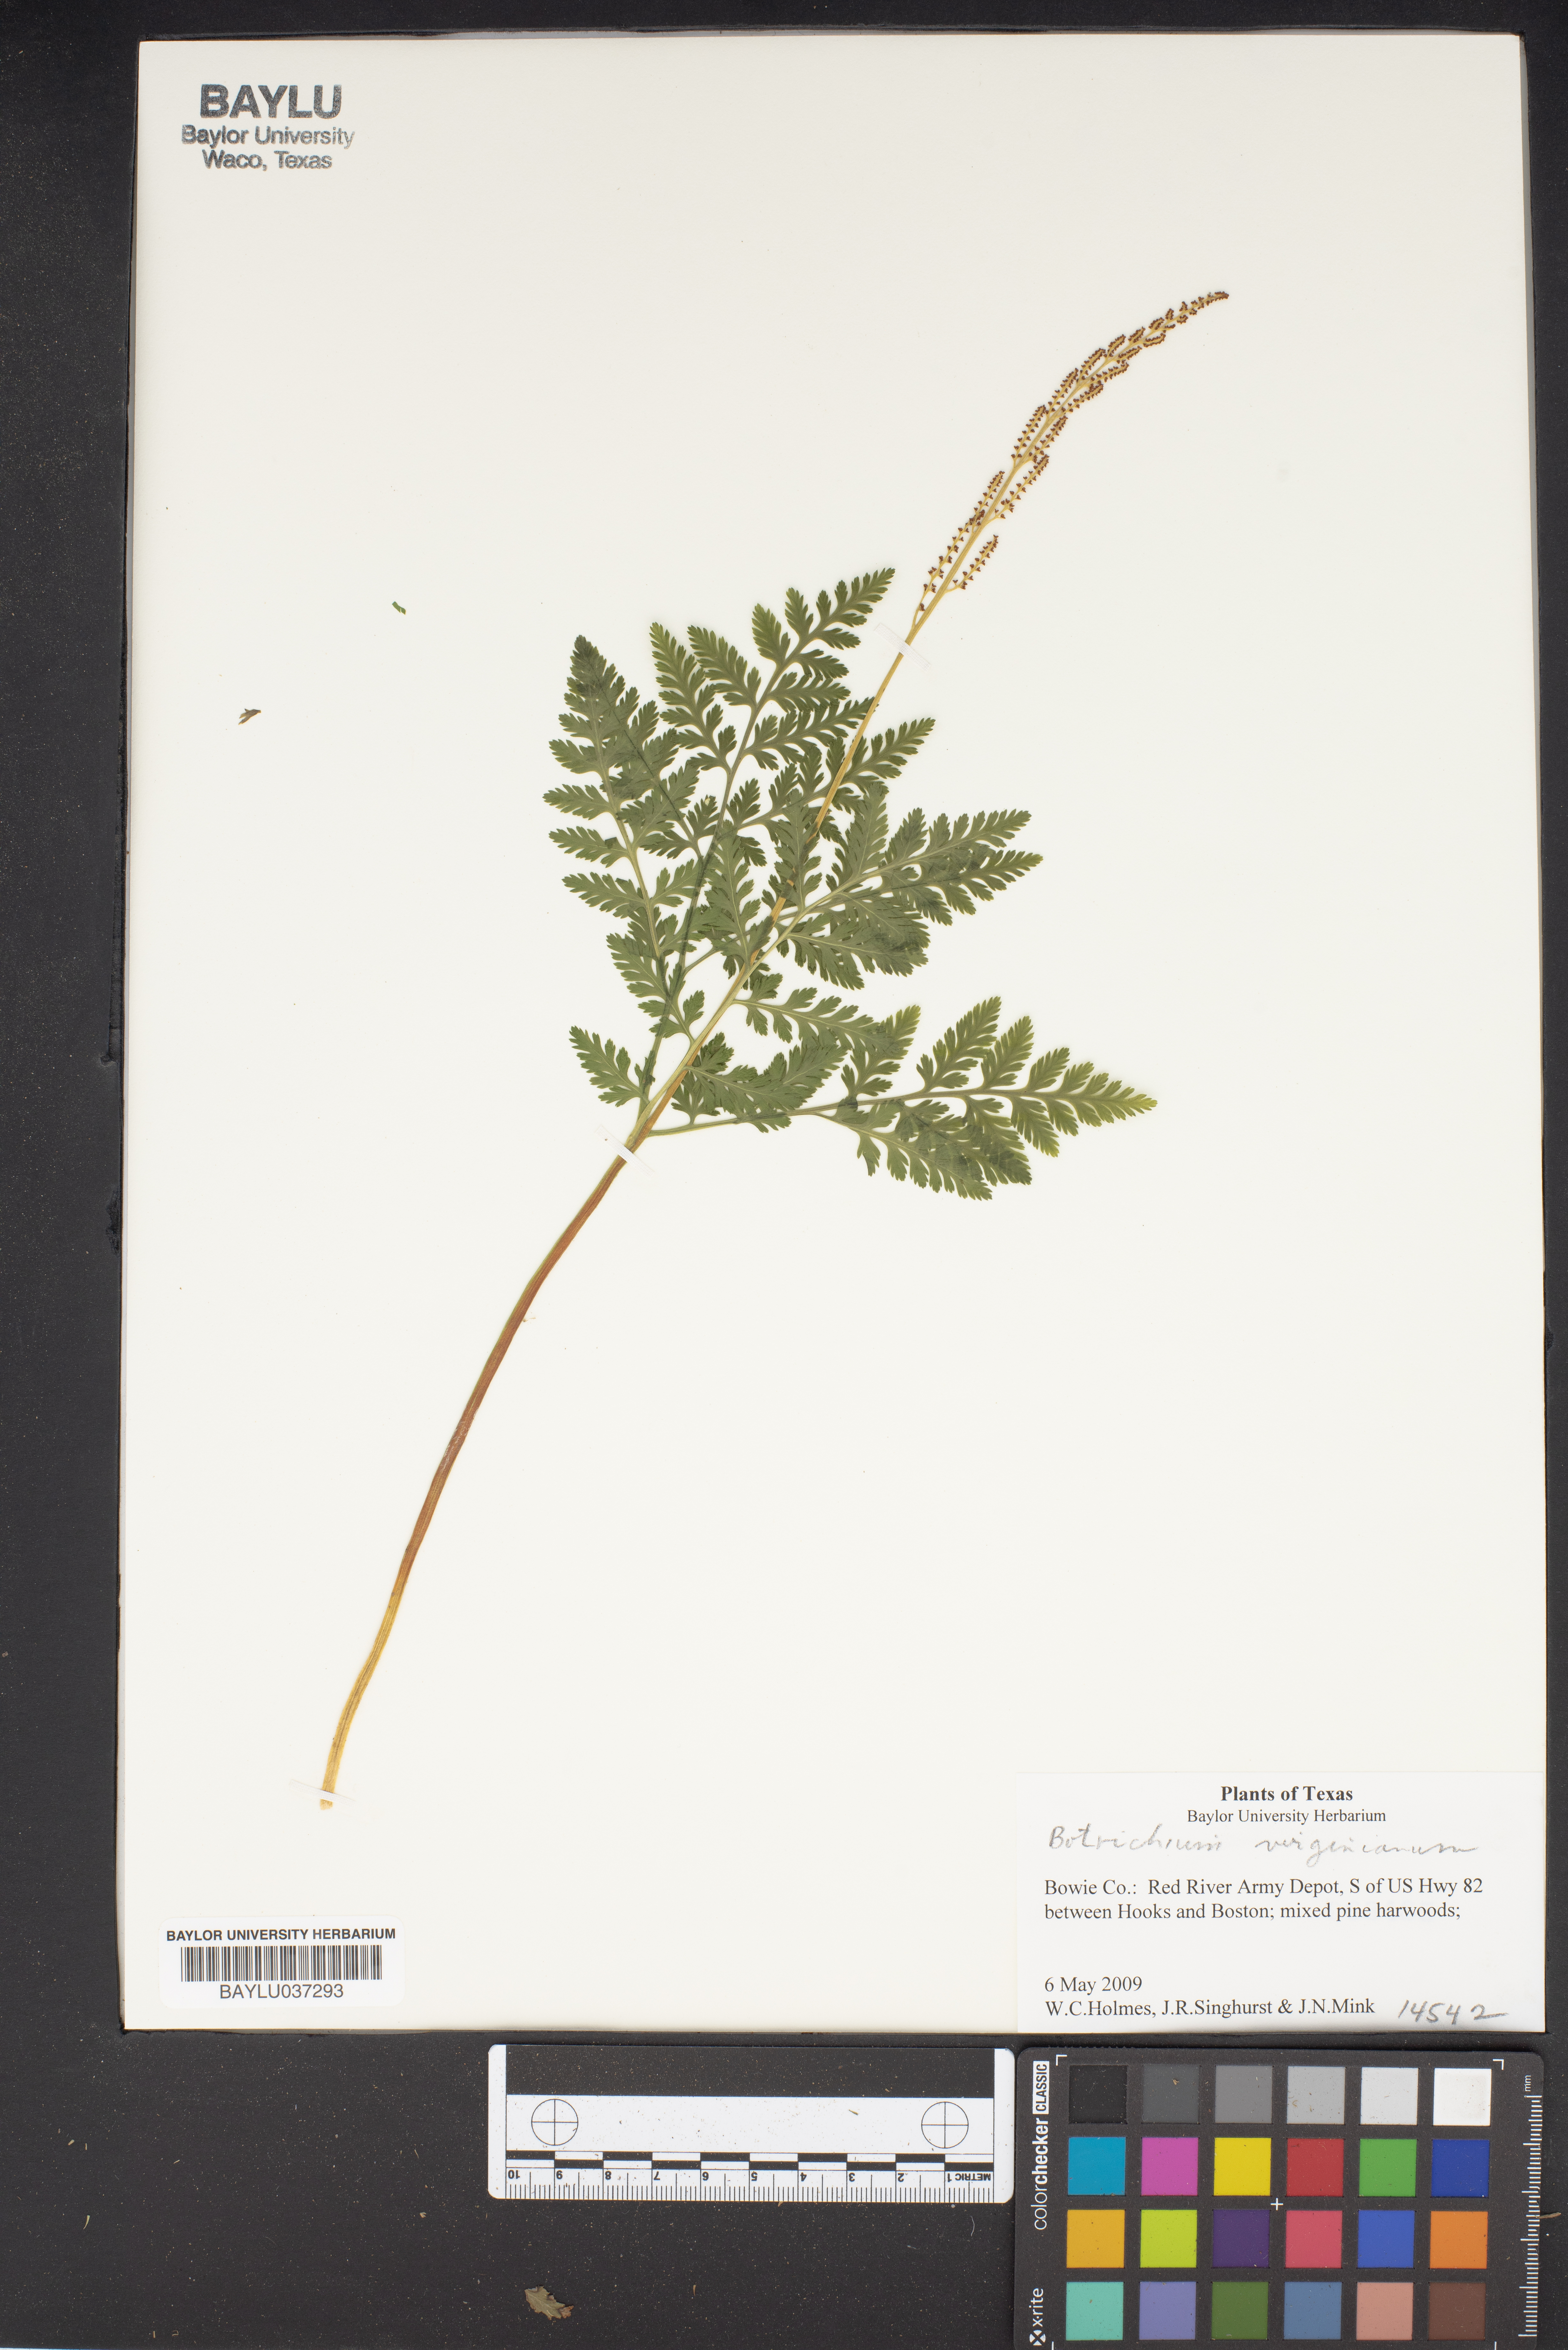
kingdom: Plantae
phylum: Tracheophyta
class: Polypodiopsida
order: Ophioglossales
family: Ophioglossaceae
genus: Botrypus
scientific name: Botrypus virginianus
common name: Common grapefern
